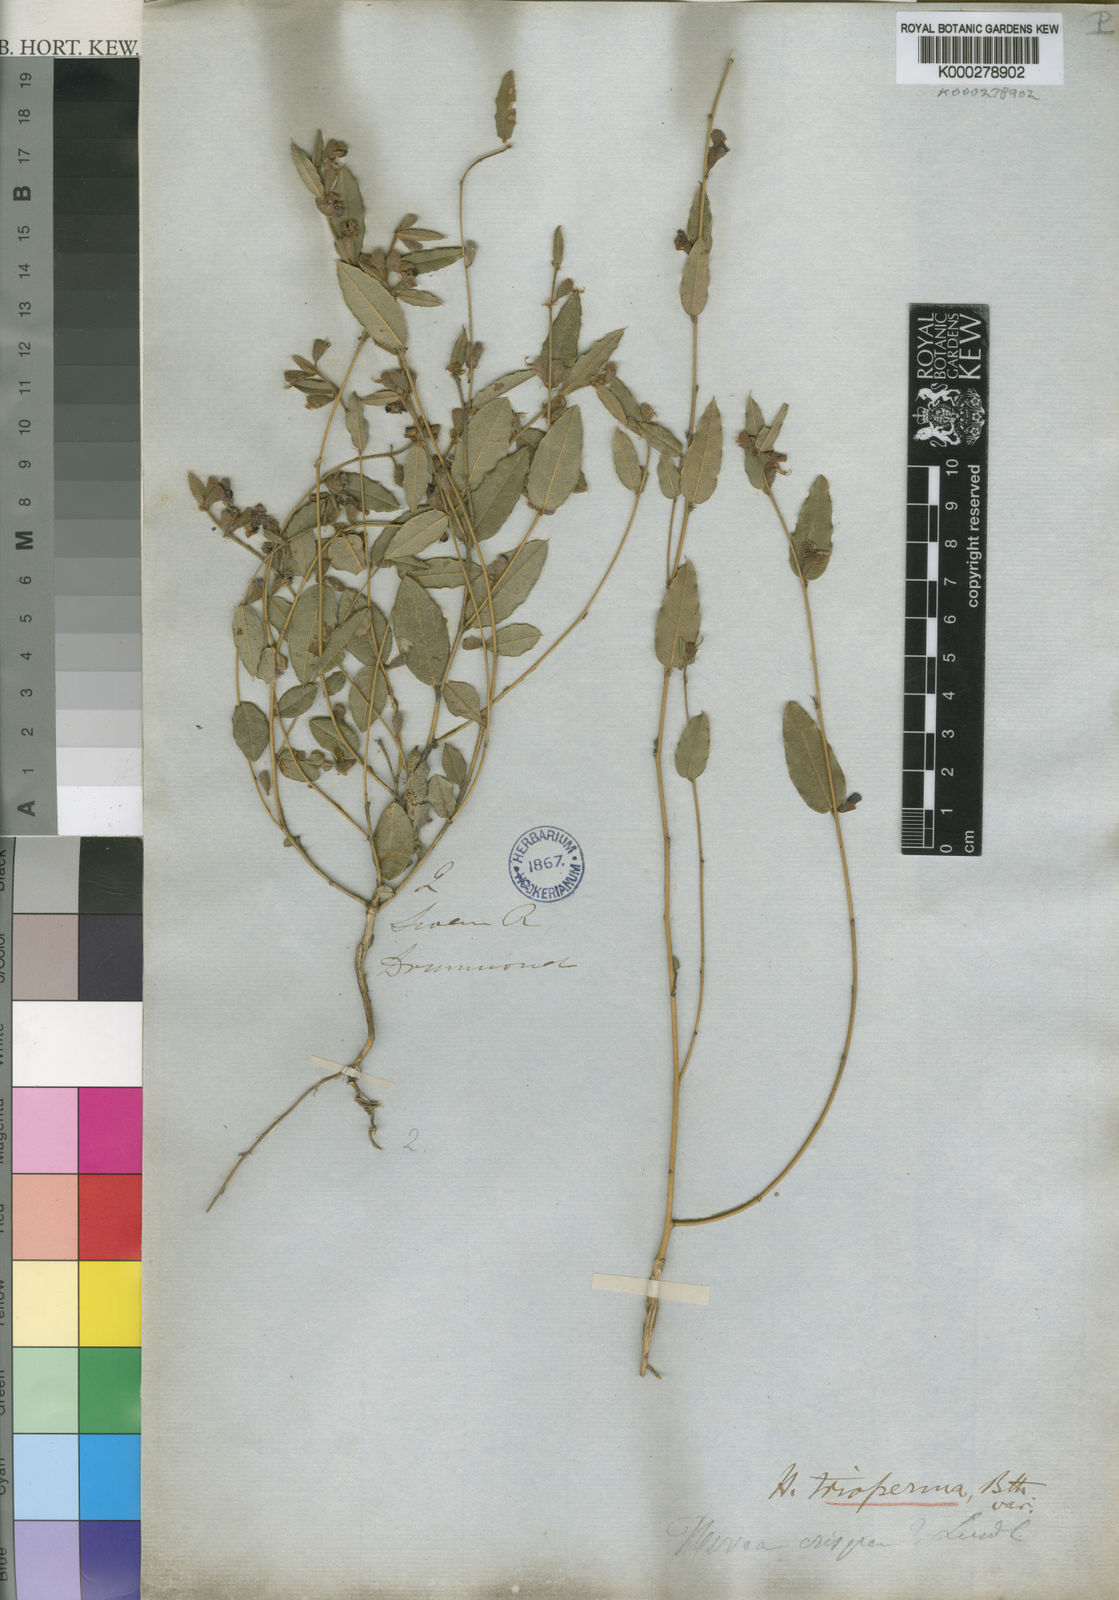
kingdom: Plantae
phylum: Tracheophyta
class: Magnoliopsida
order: Fabales
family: Fabaceae
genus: Hovea
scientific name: Hovea trisperma
